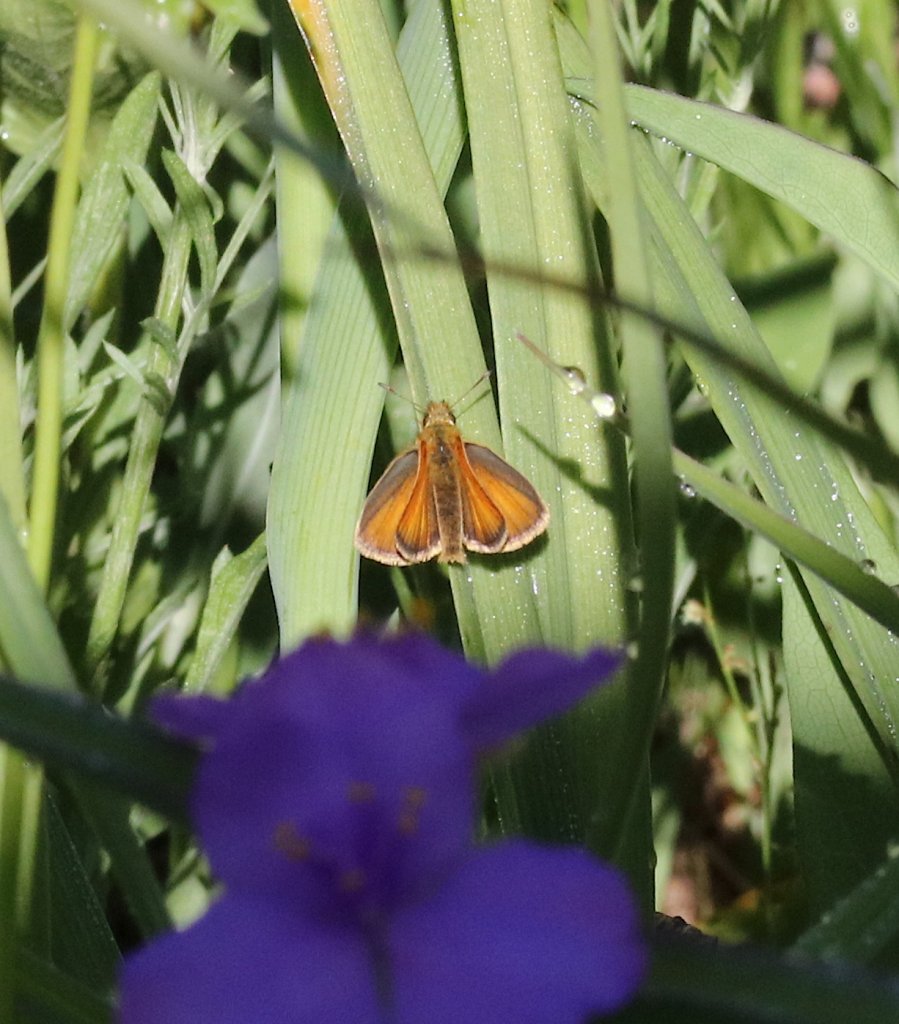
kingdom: Animalia
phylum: Arthropoda
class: Insecta
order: Lepidoptera
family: Hesperiidae
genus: Ancyloxypha
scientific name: Ancyloxypha numitor
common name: Least Skipper
